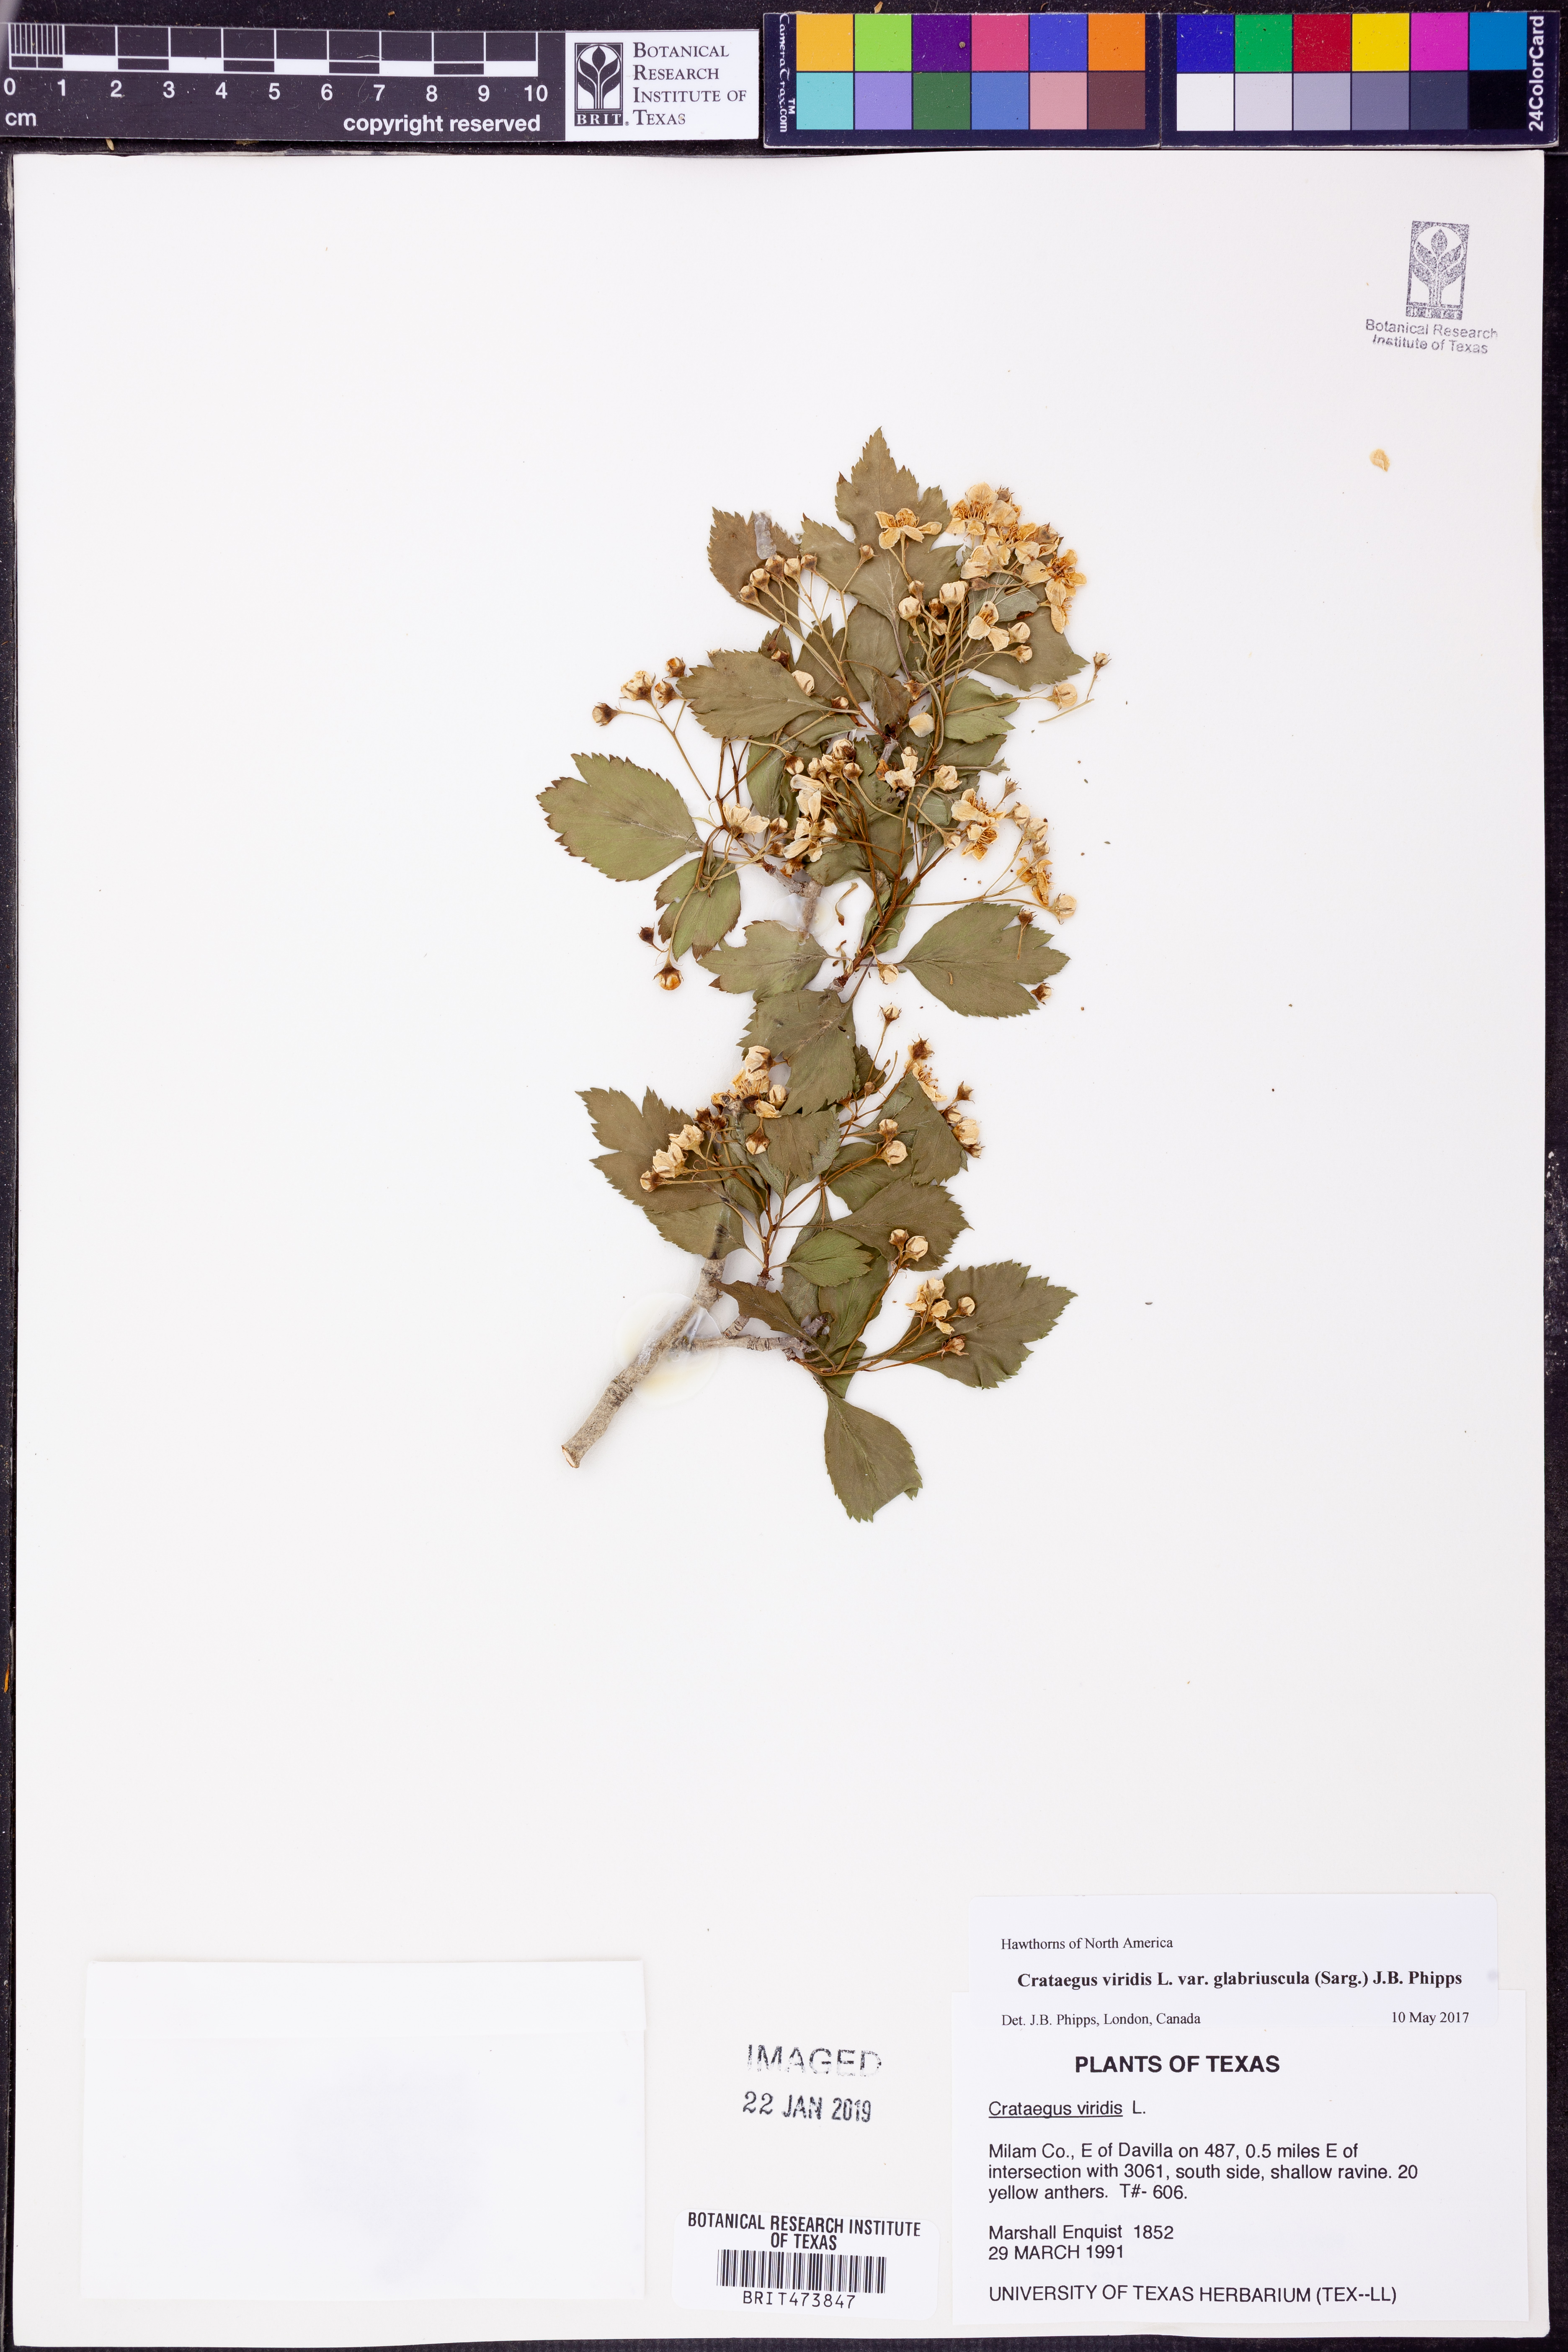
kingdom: Plantae
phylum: Tracheophyta
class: Magnoliopsida
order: Rosales
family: Rosaceae
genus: Crataegus
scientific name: Crataegus viridis
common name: Southernthorn
